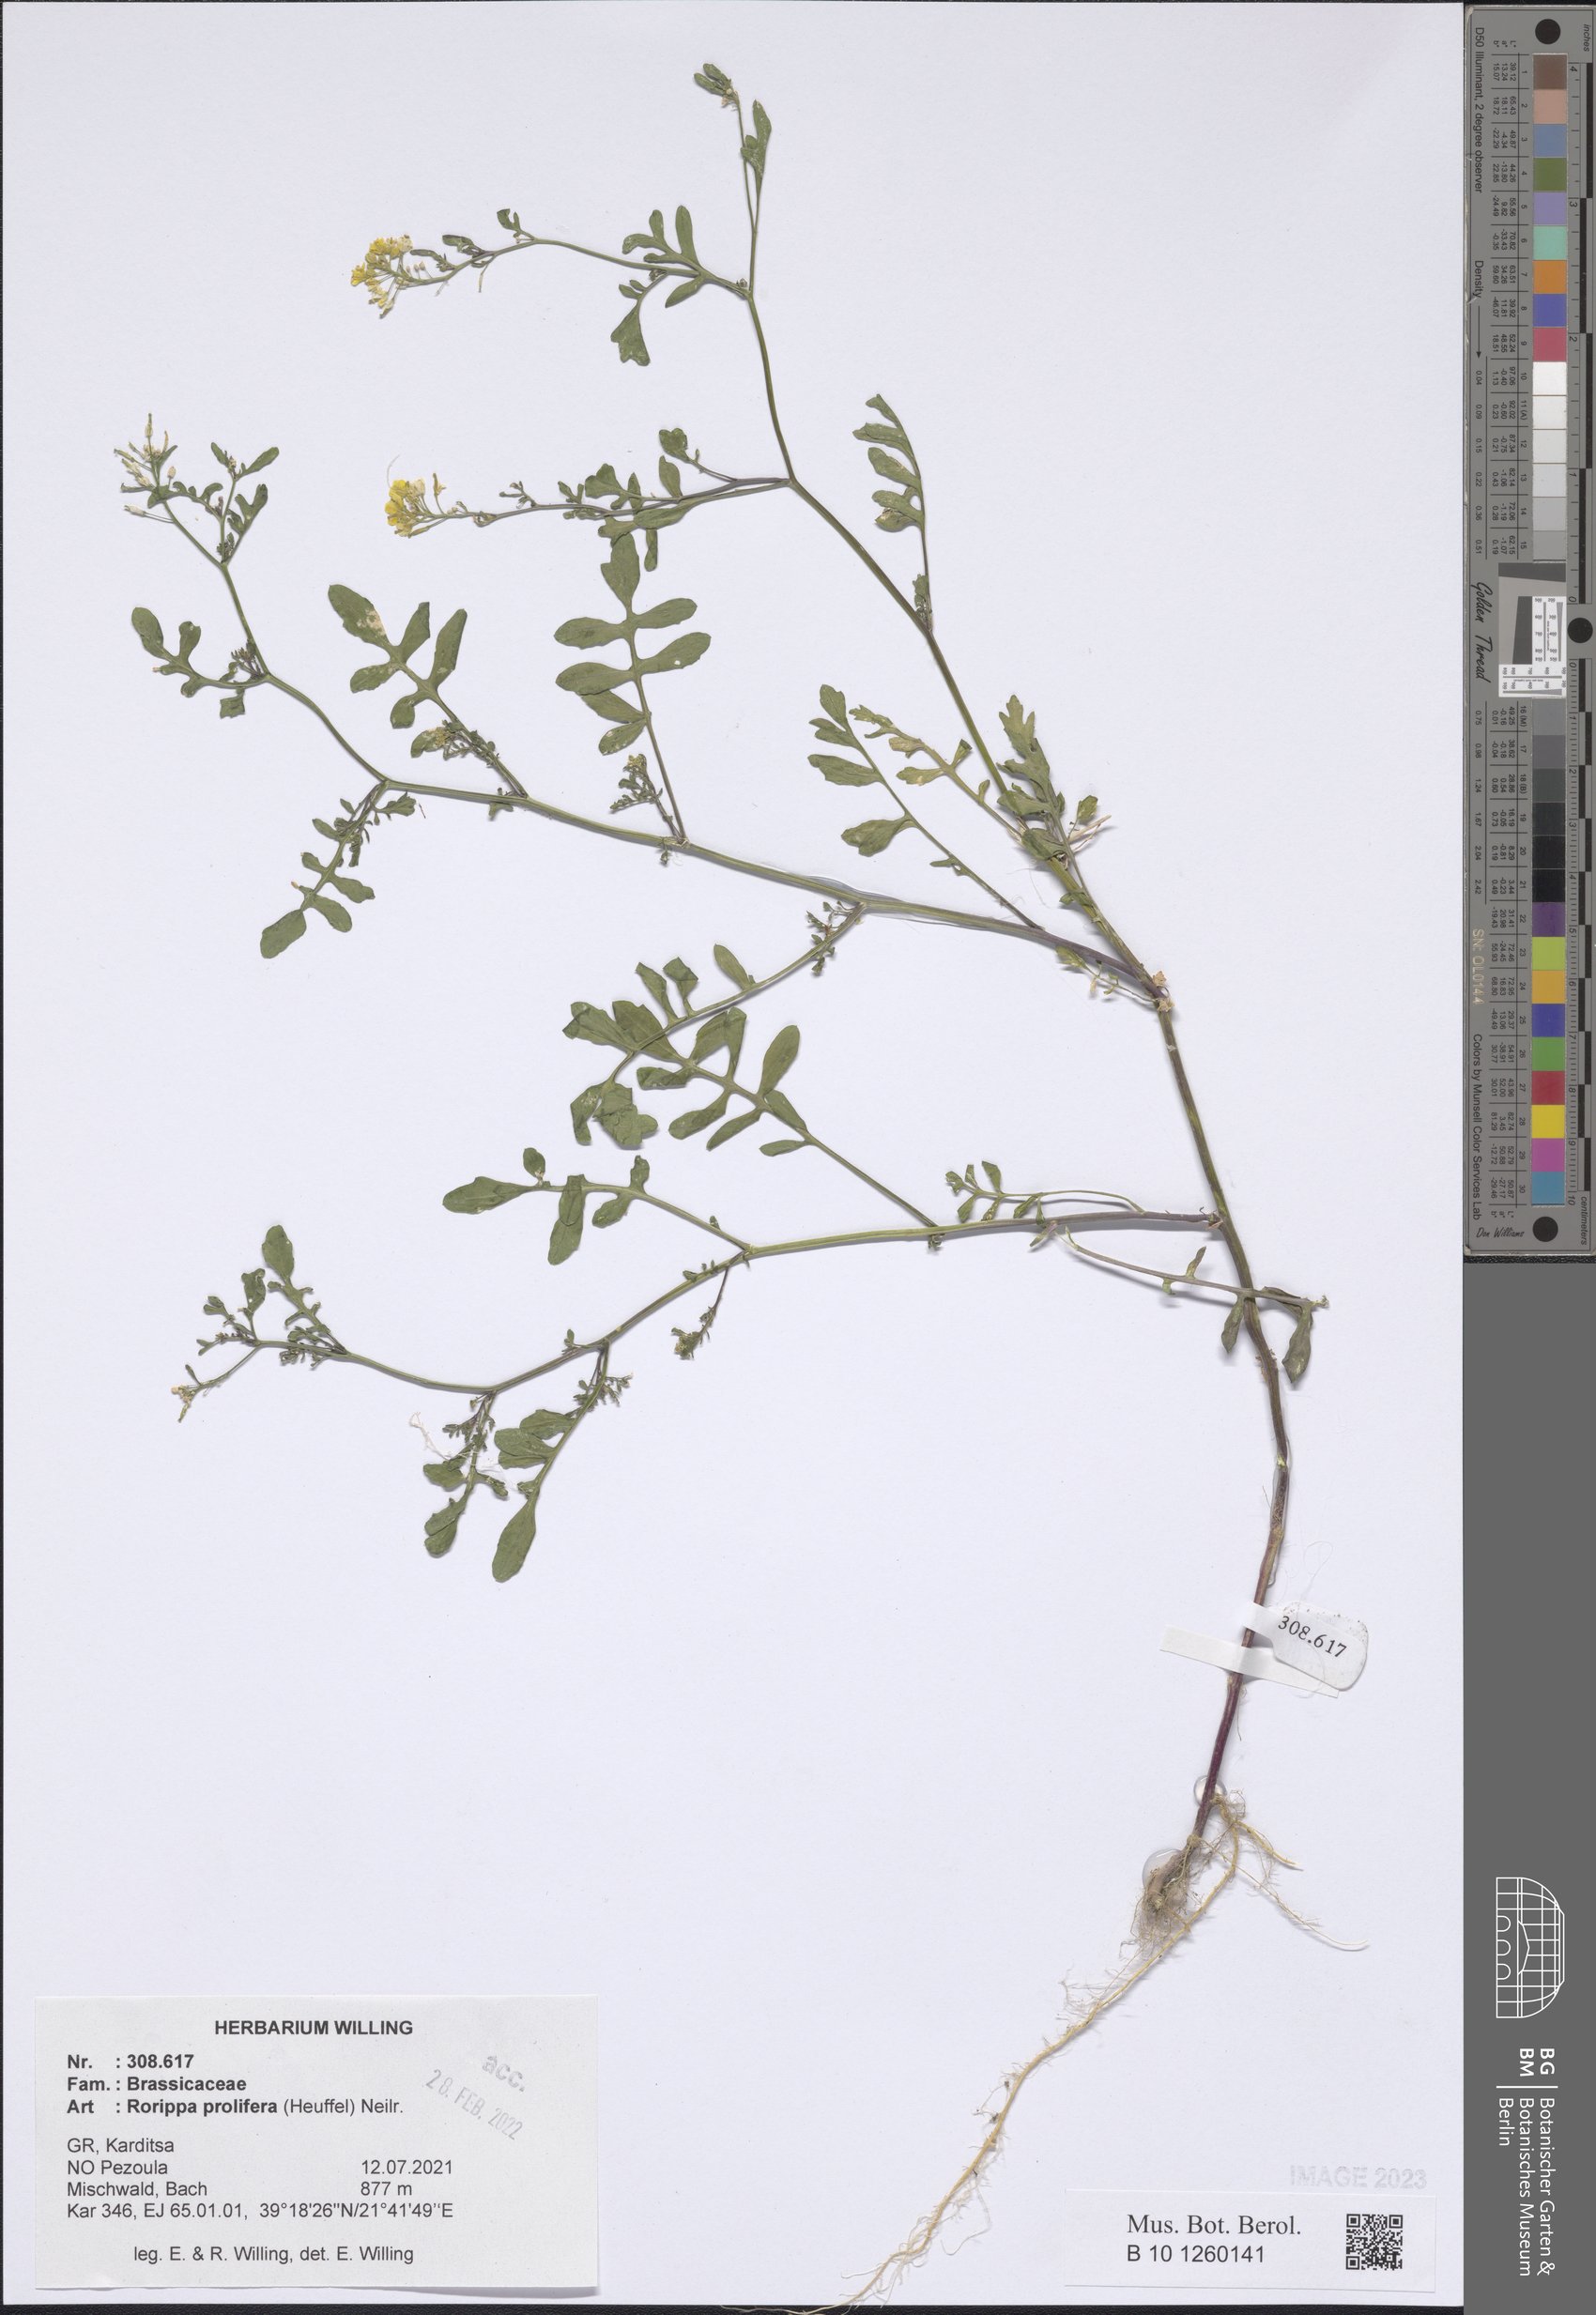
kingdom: Plantae
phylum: Tracheophyta
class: Magnoliopsida
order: Brassicales
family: Brassicaceae
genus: Rorippa
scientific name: Rorippa prolifera
